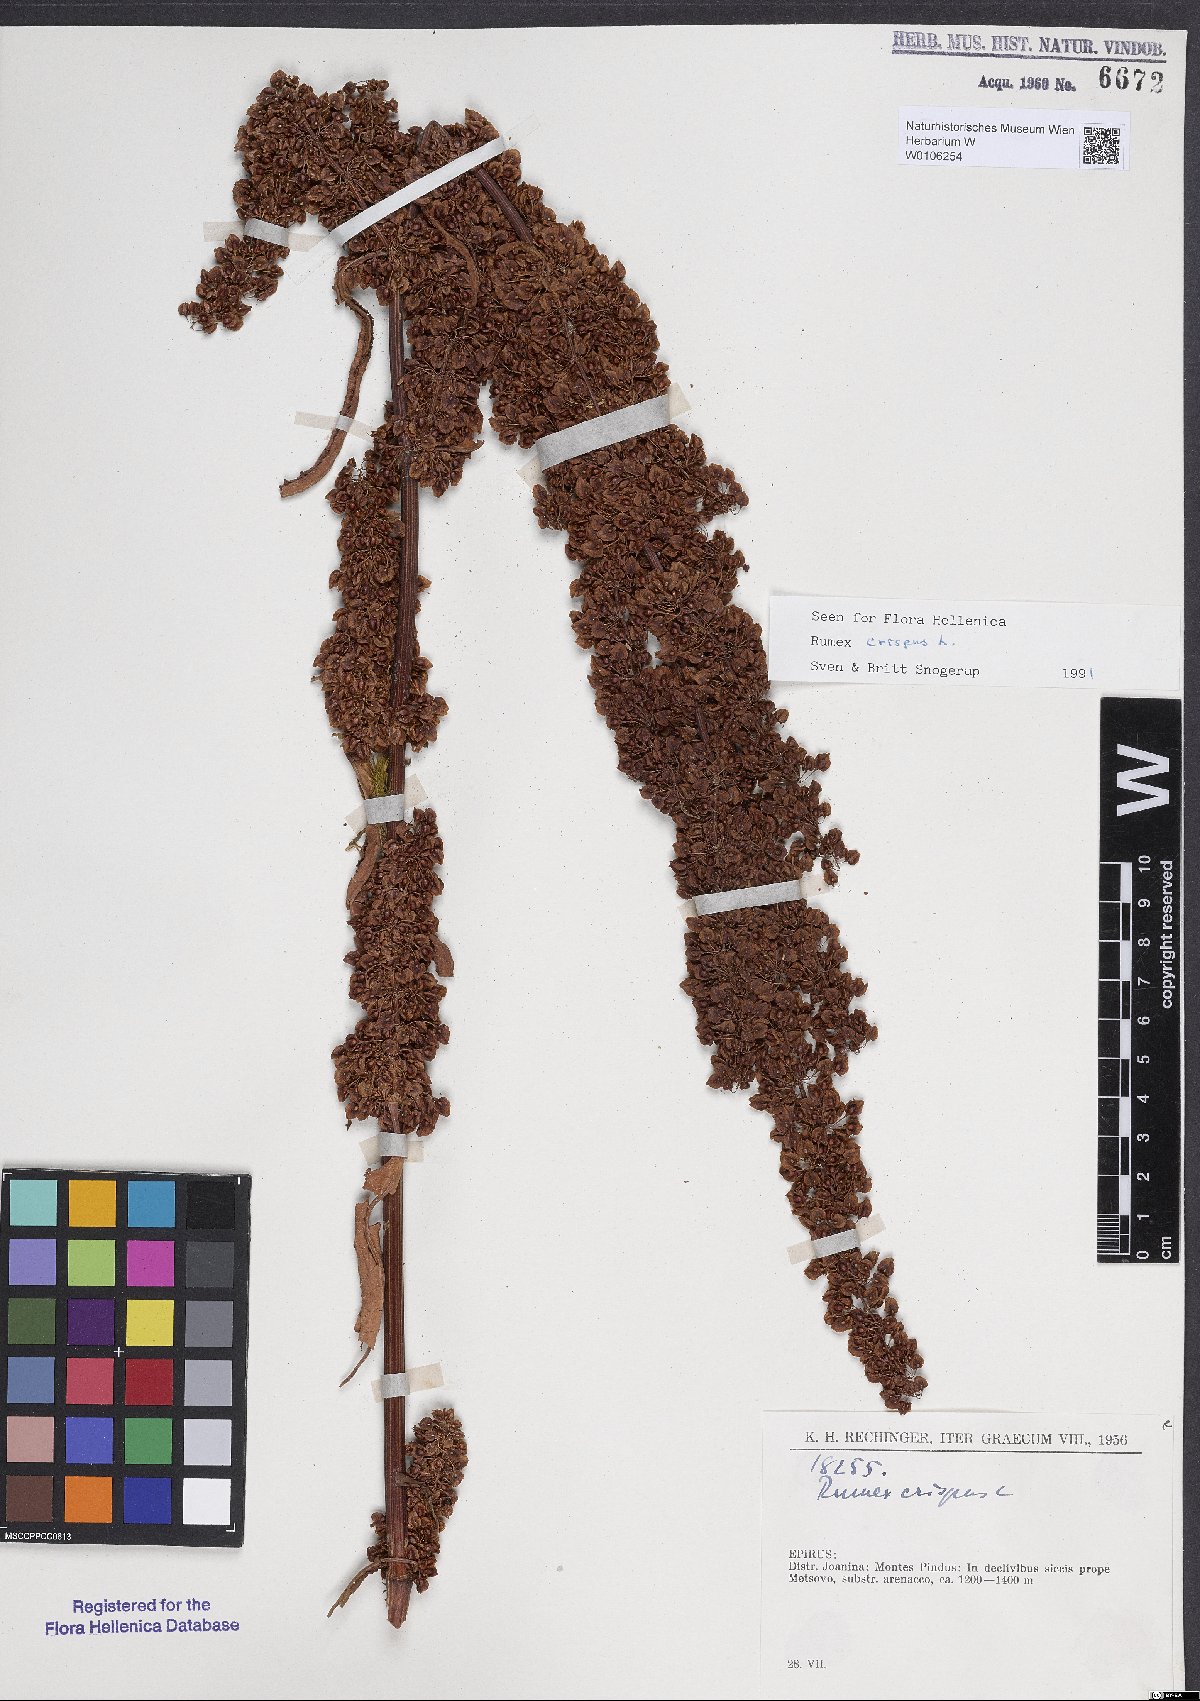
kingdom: Plantae
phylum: Tracheophyta
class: Magnoliopsida
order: Caryophyllales
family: Polygonaceae
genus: Rumex
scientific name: Rumex crispus
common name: Curled dock
